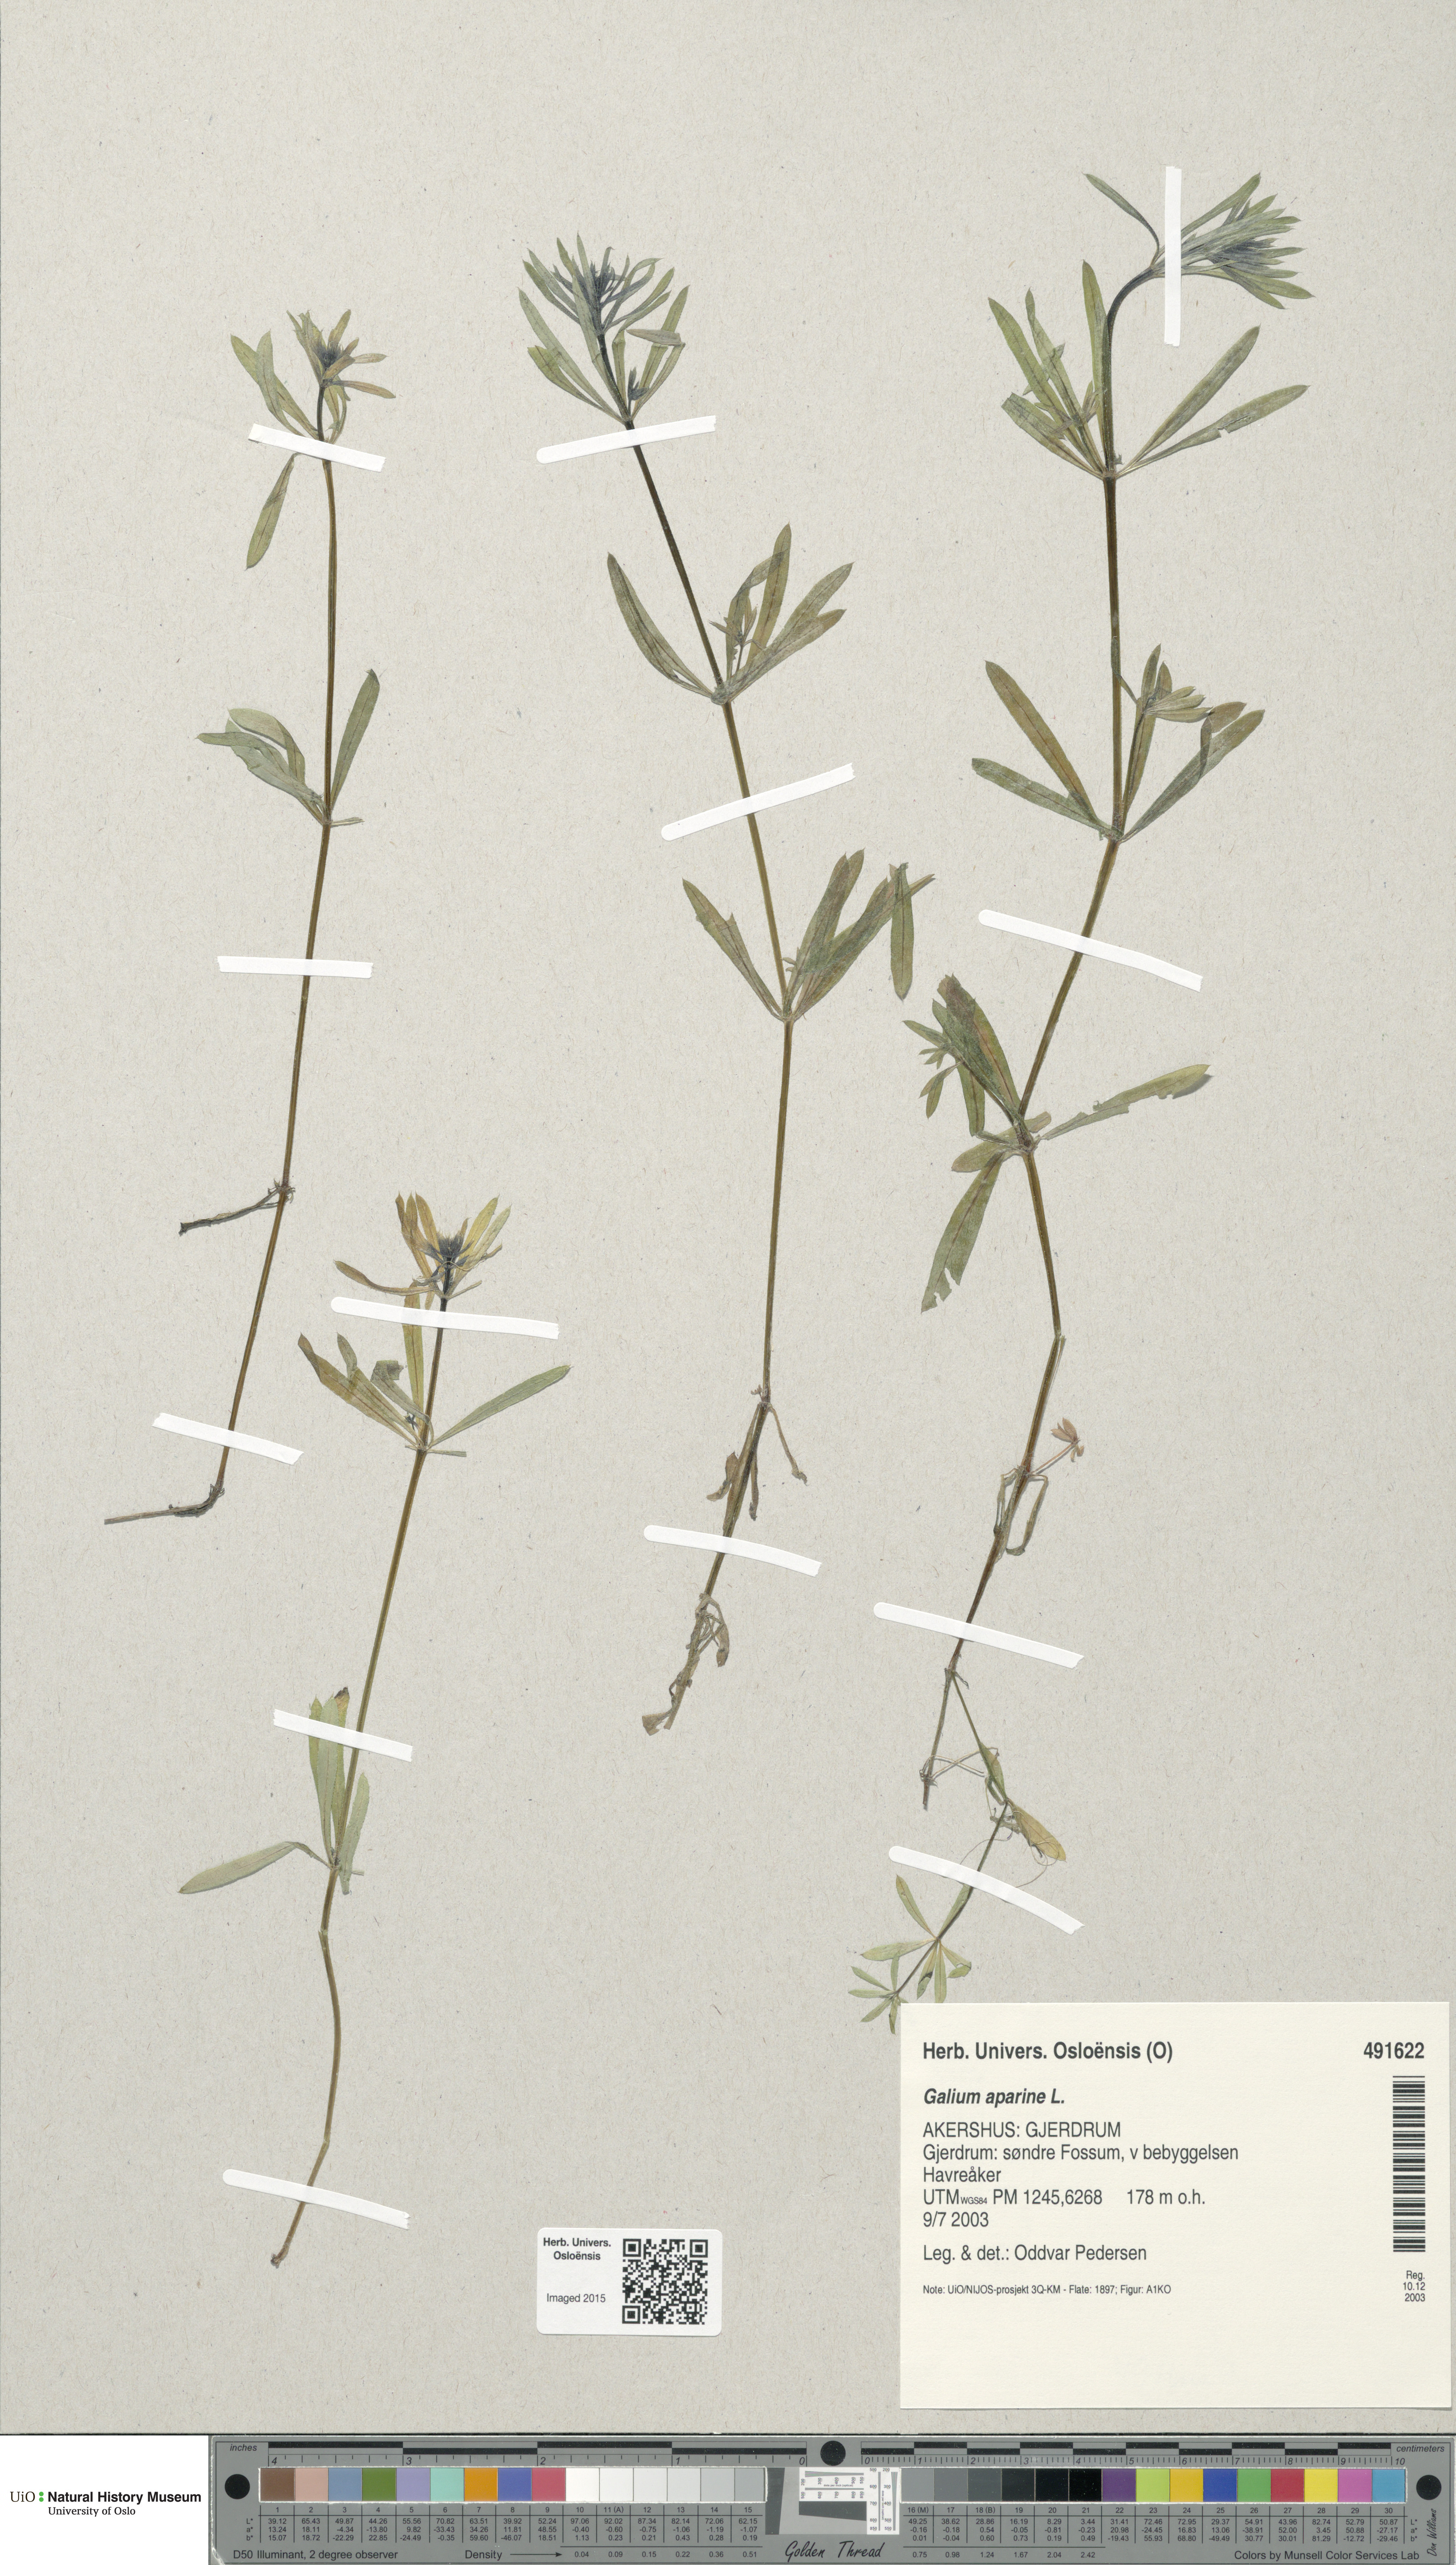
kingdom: Plantae
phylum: Tracheophyta
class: Magnoliopsida
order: Gentianales
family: Rubiaceae
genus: Galium
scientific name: Galium aparine
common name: Cleavers
